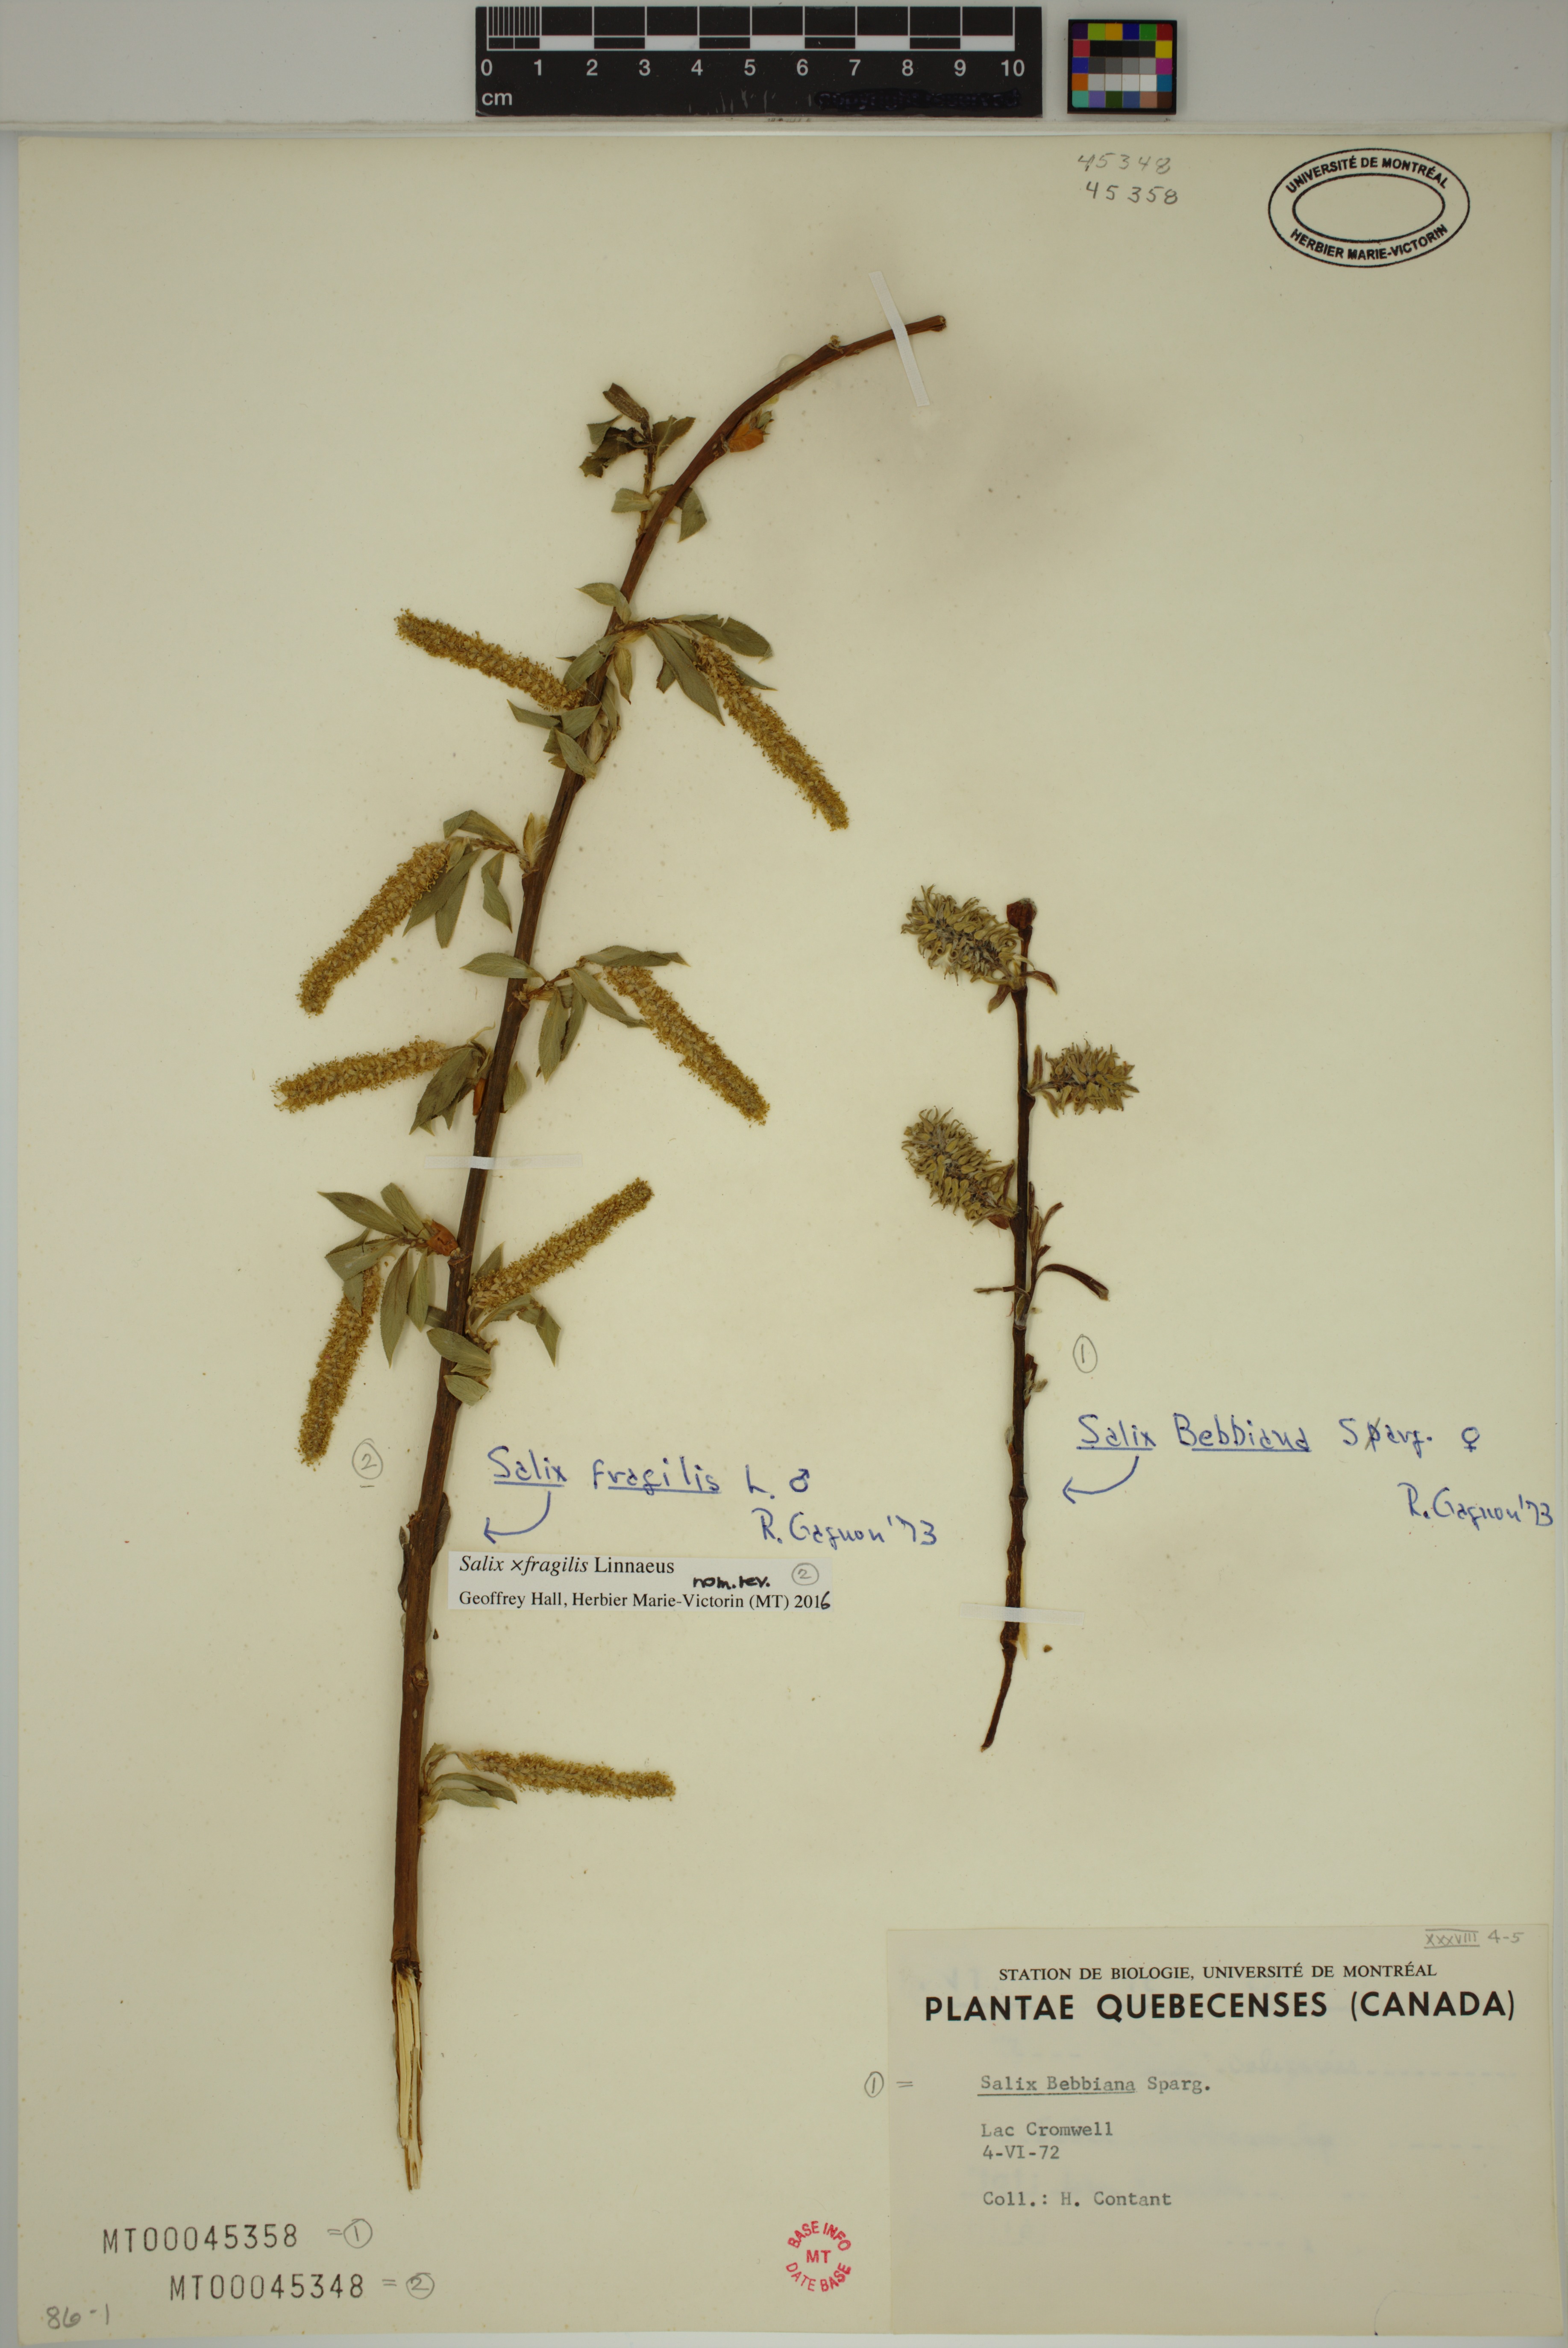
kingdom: Plantae
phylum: Tracheophyta
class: Magnoliopsida
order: Malpighiales
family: Salicaceae
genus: Salix
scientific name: Salix fragilis
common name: Crack willow
